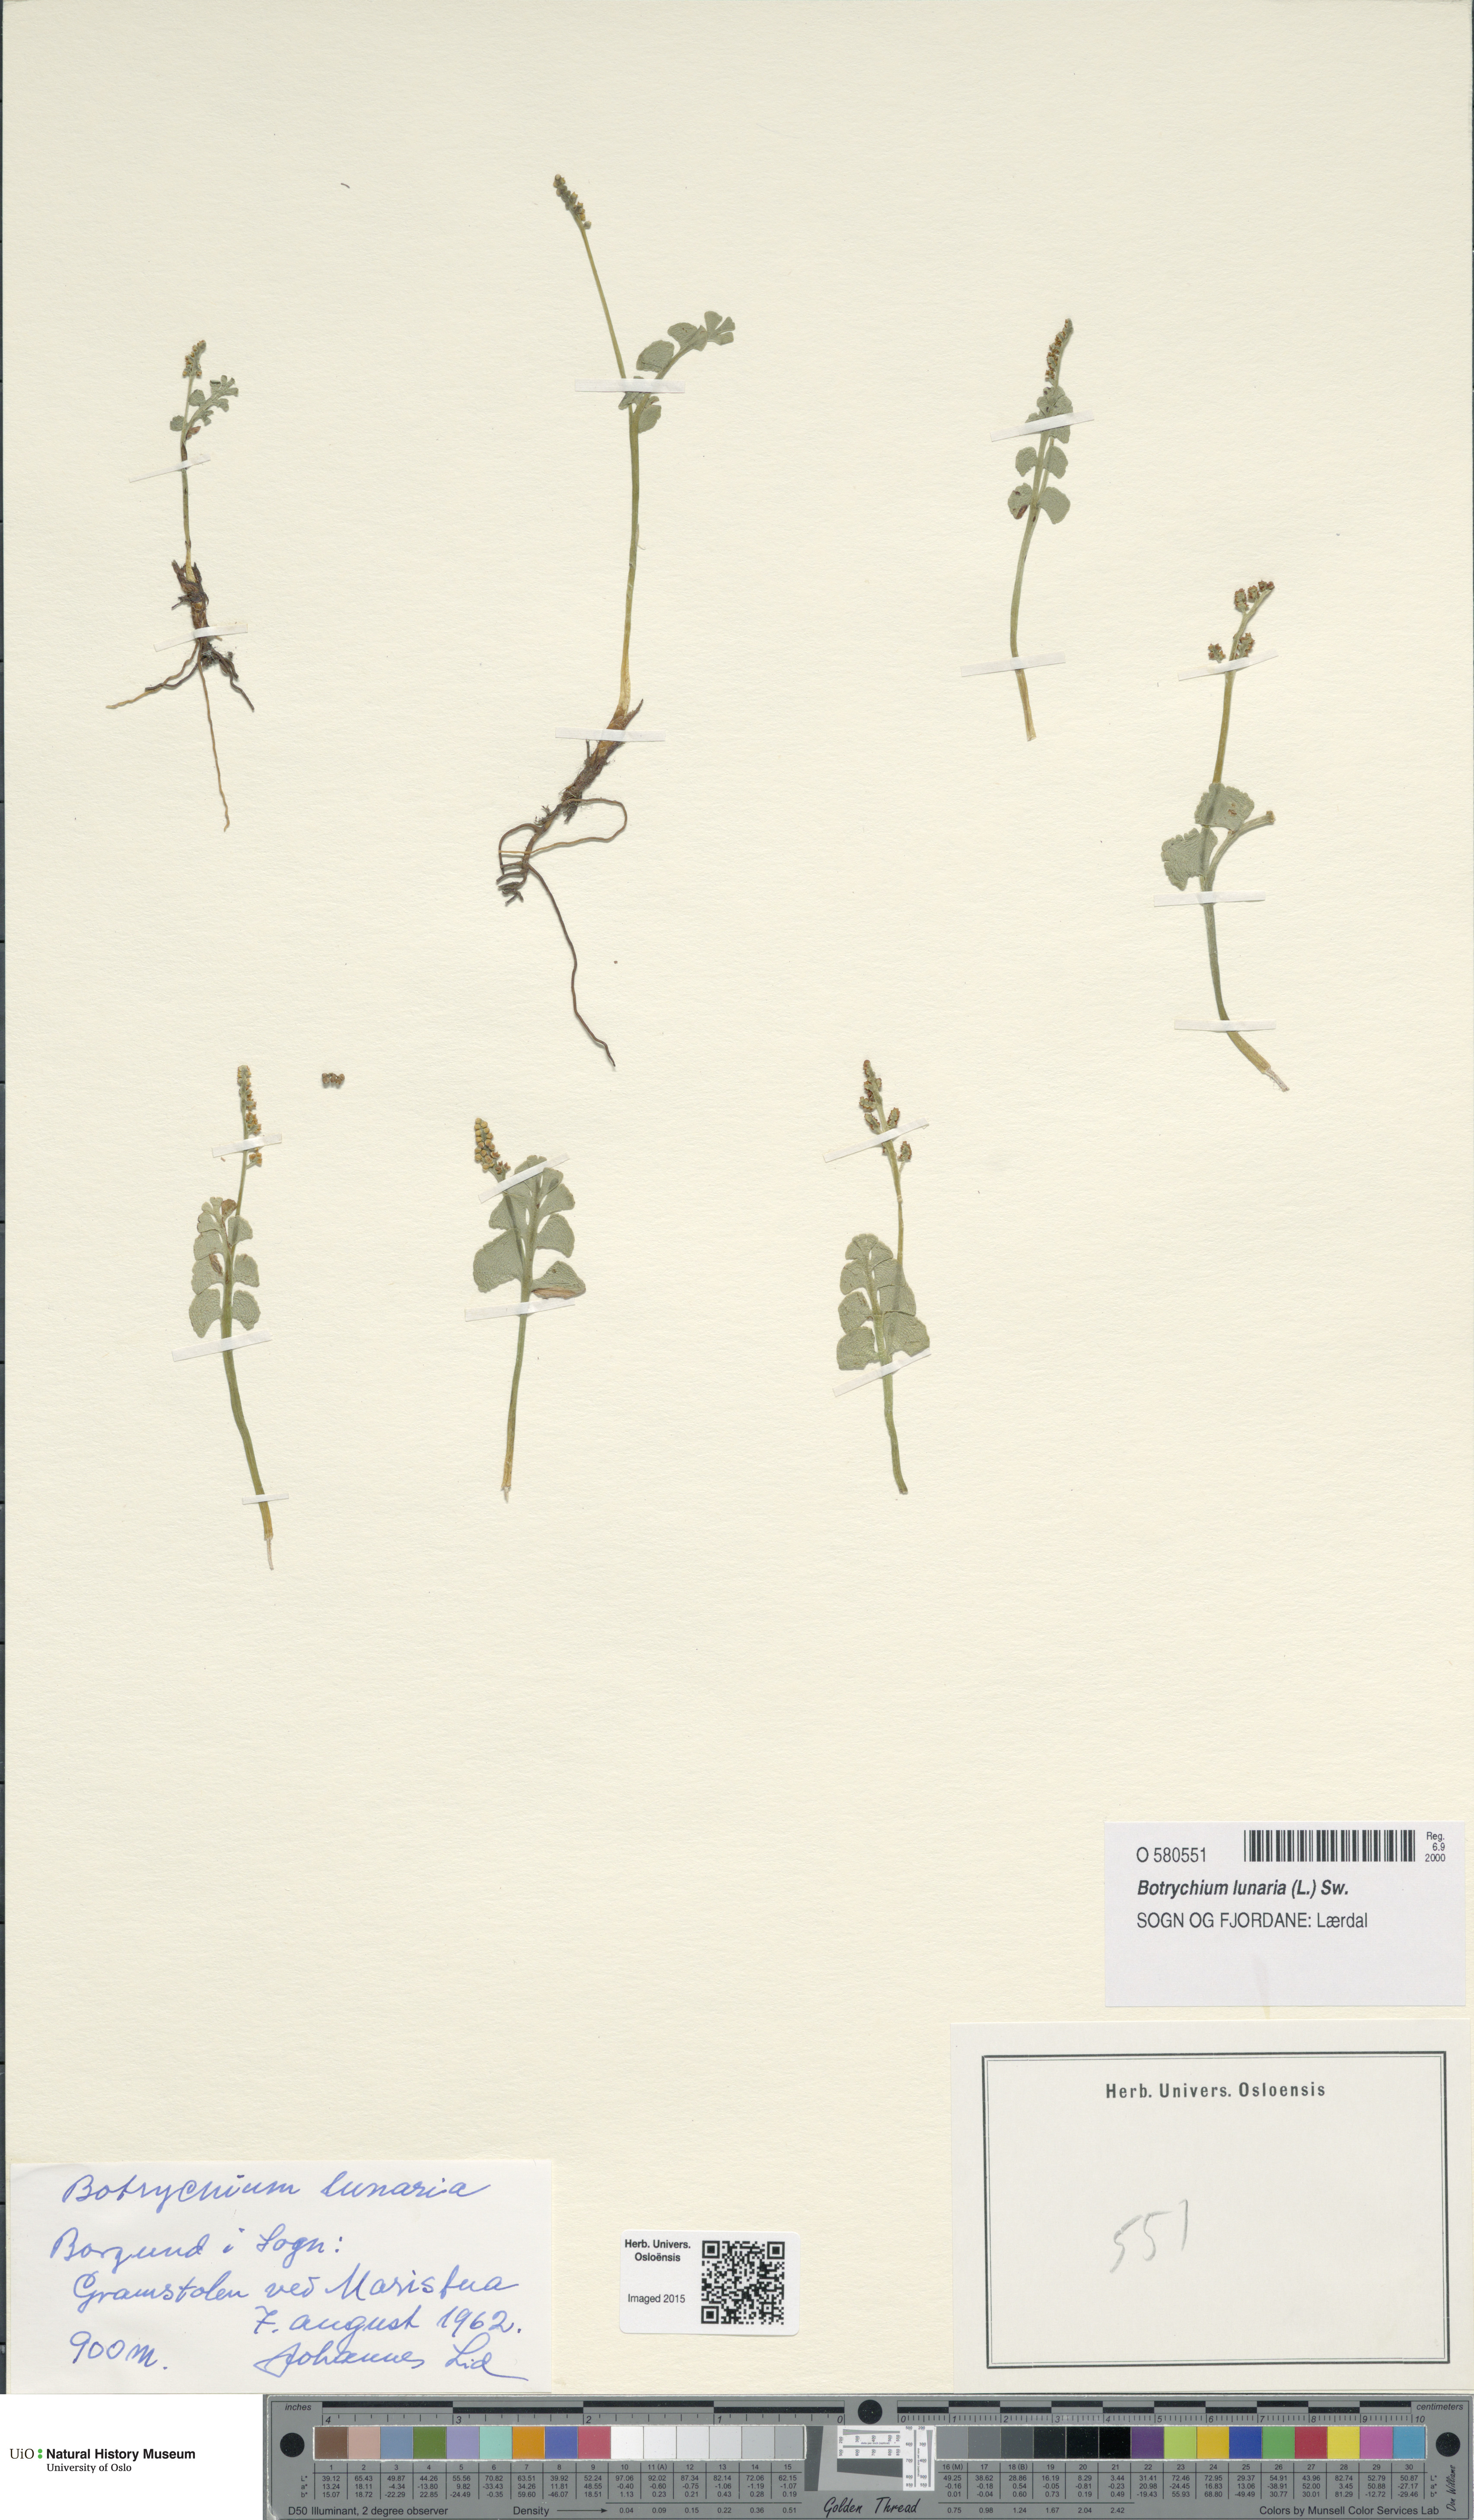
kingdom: Plantae
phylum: Tracheophyta
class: Polypodiopsida
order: Ophioglossales
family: Ophioglossaceae
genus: Botrychium
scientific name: Botrychium lunaria
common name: Moonwort
